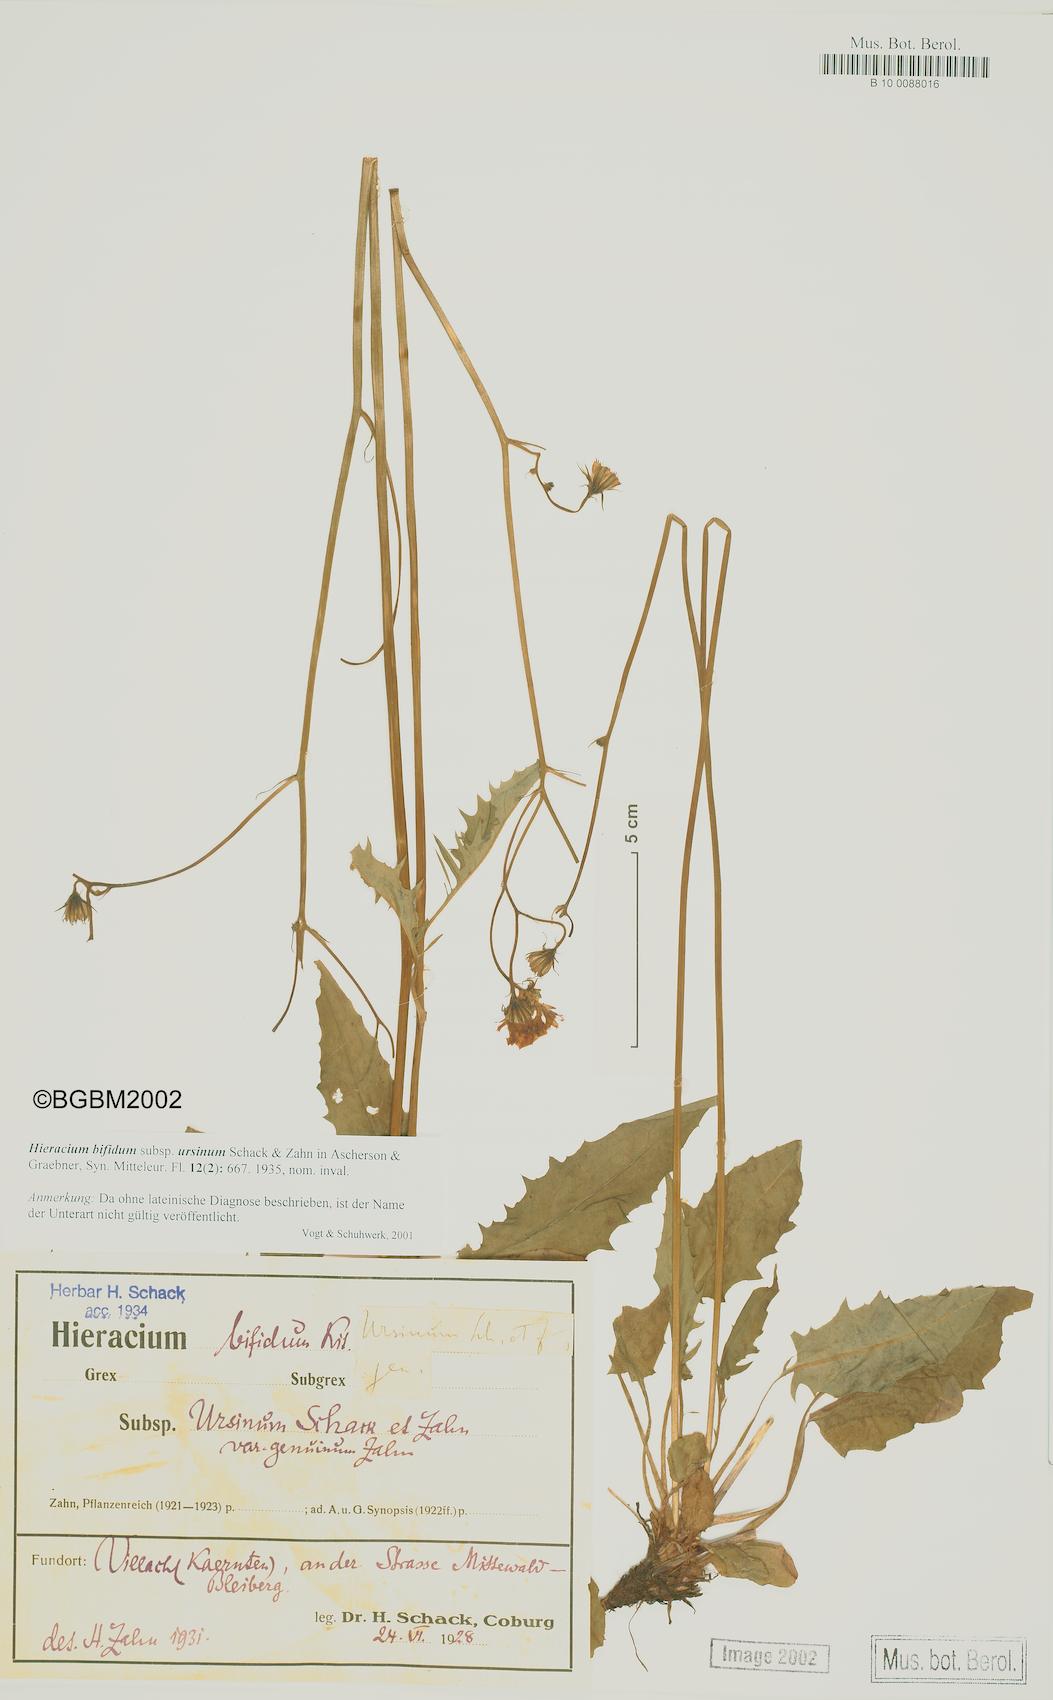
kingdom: Plantae
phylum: Tracheophyta
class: Magnoliopsida
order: Asterales
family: Asteraceae
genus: Hieracium
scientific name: Hieracium bifidum
